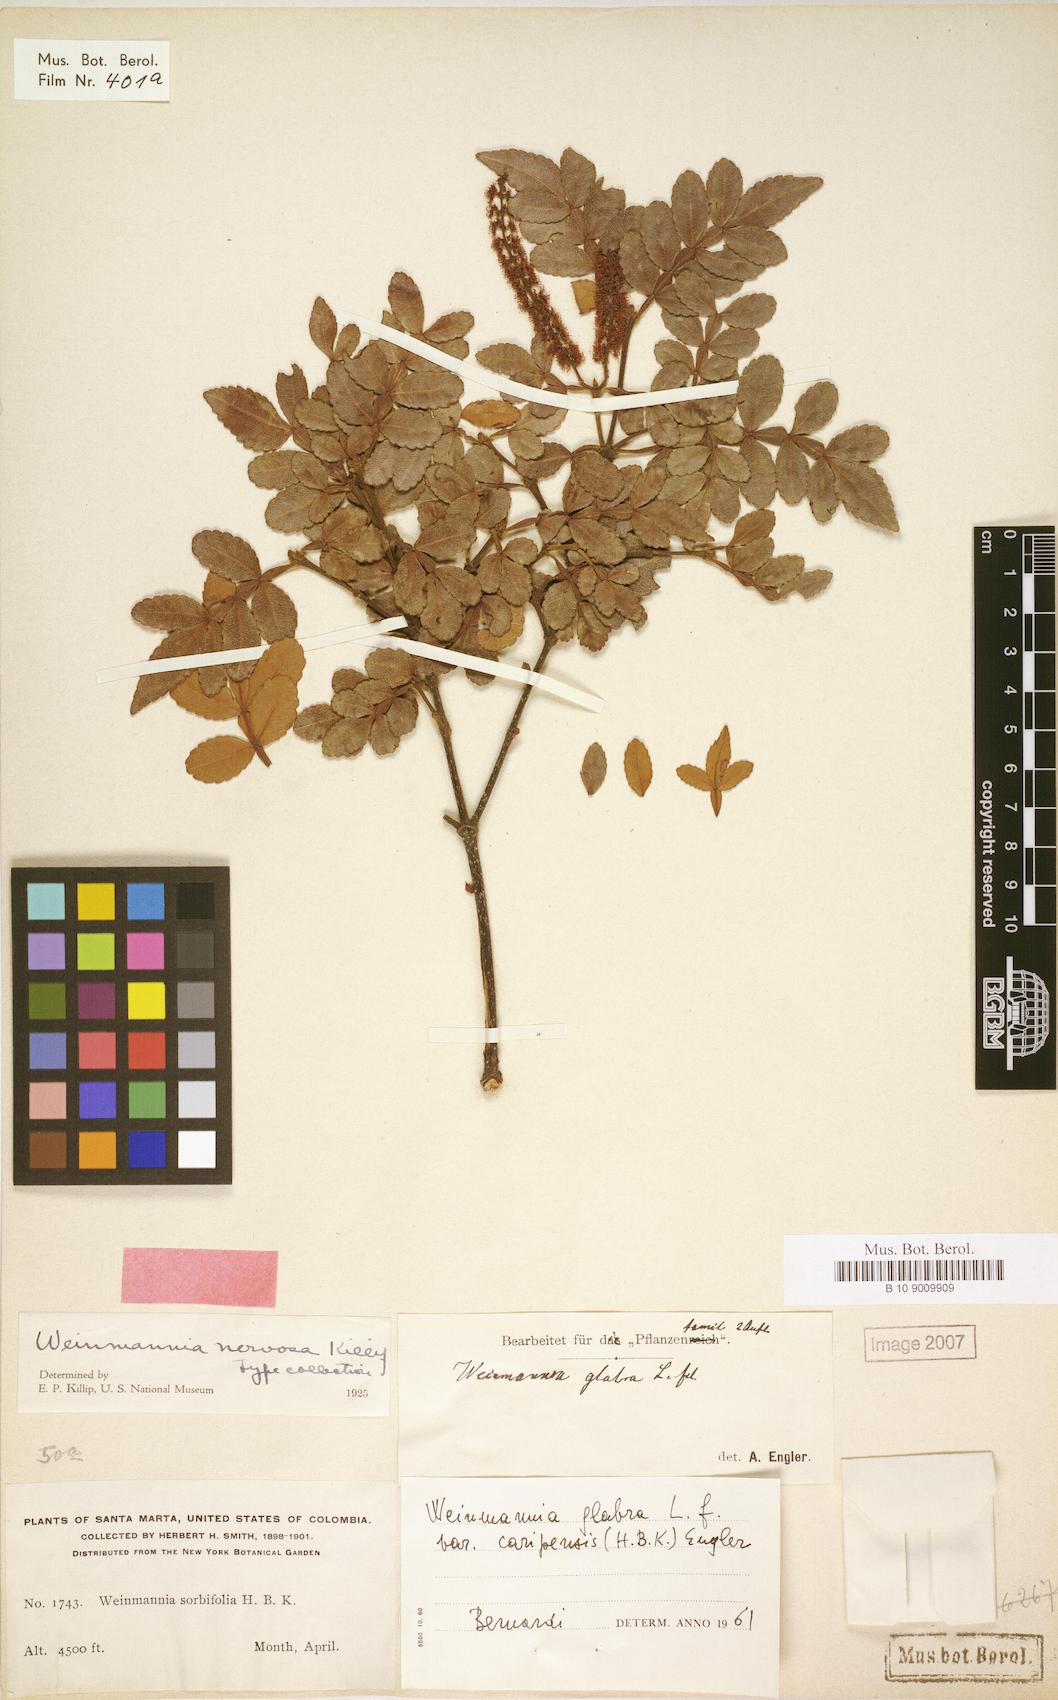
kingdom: Plantae
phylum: Tracheophyta
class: Magnoliopsida
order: Oxalidales
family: Cunoniaceae
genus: Weinmannia
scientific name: Weinmannia pinnata
